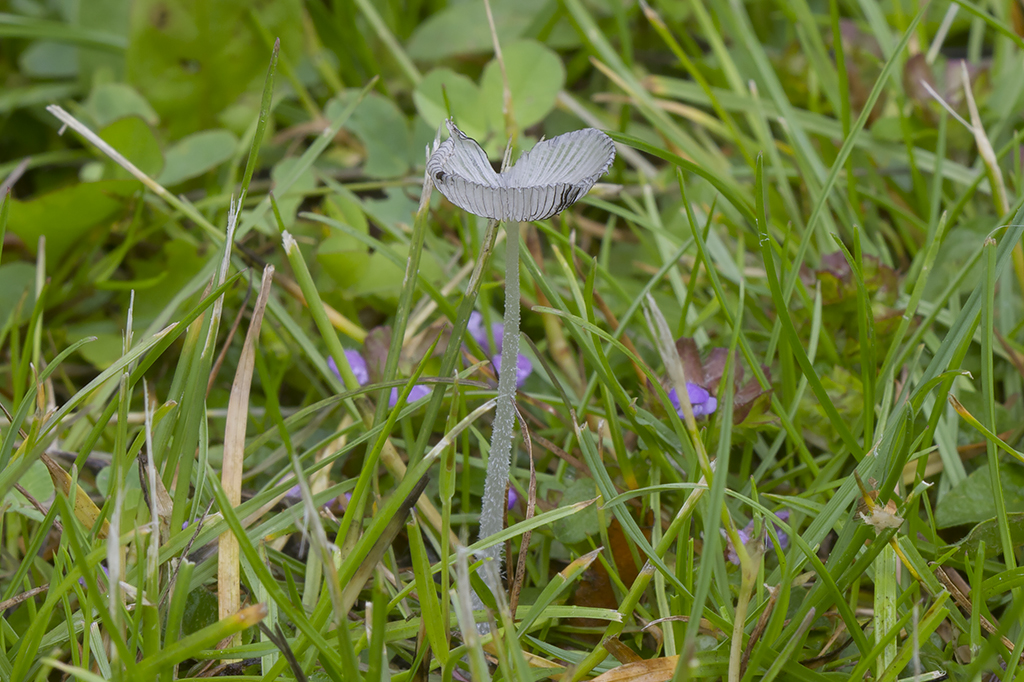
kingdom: Fungi
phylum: Basidiomycota
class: Agaricomycetes
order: Agaricales
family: Psathyrellaceae
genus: Coprinopsis
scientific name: Coprinopsis lagopus
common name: dunstokket blækhat
